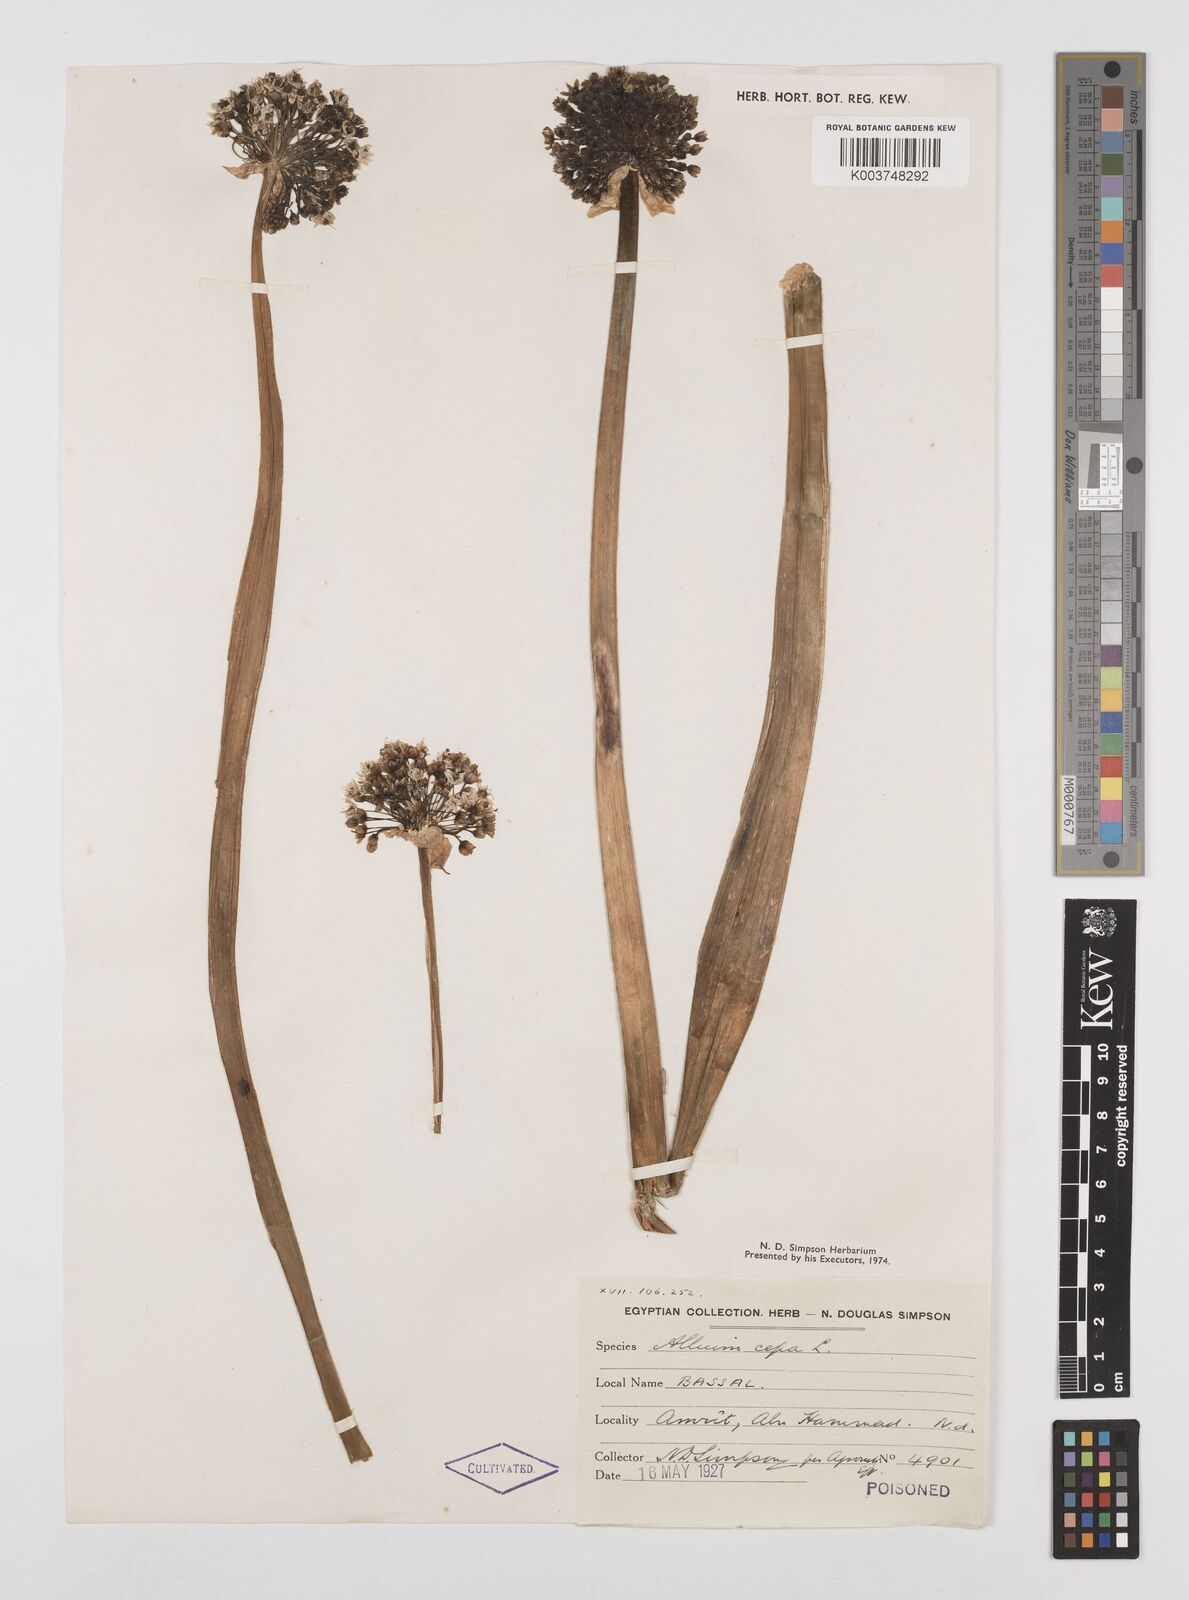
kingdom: Plantae
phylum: Tracheophyta
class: Liliopsida
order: Asparagales
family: Amaryllidaceae
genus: Allium
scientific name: Allium cepa
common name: Onion
